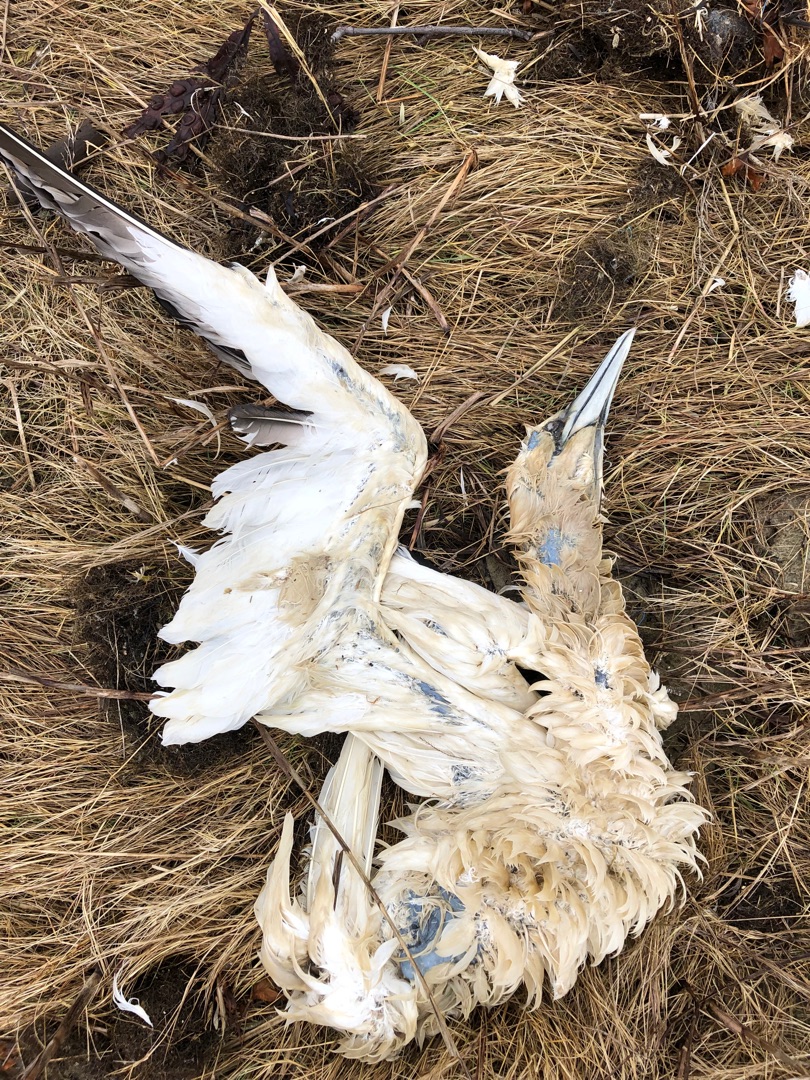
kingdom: Animalia
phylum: Chordata
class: Aves
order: Suliformes
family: Sulidae
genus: Morus
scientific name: Morus bassanus
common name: Sule
